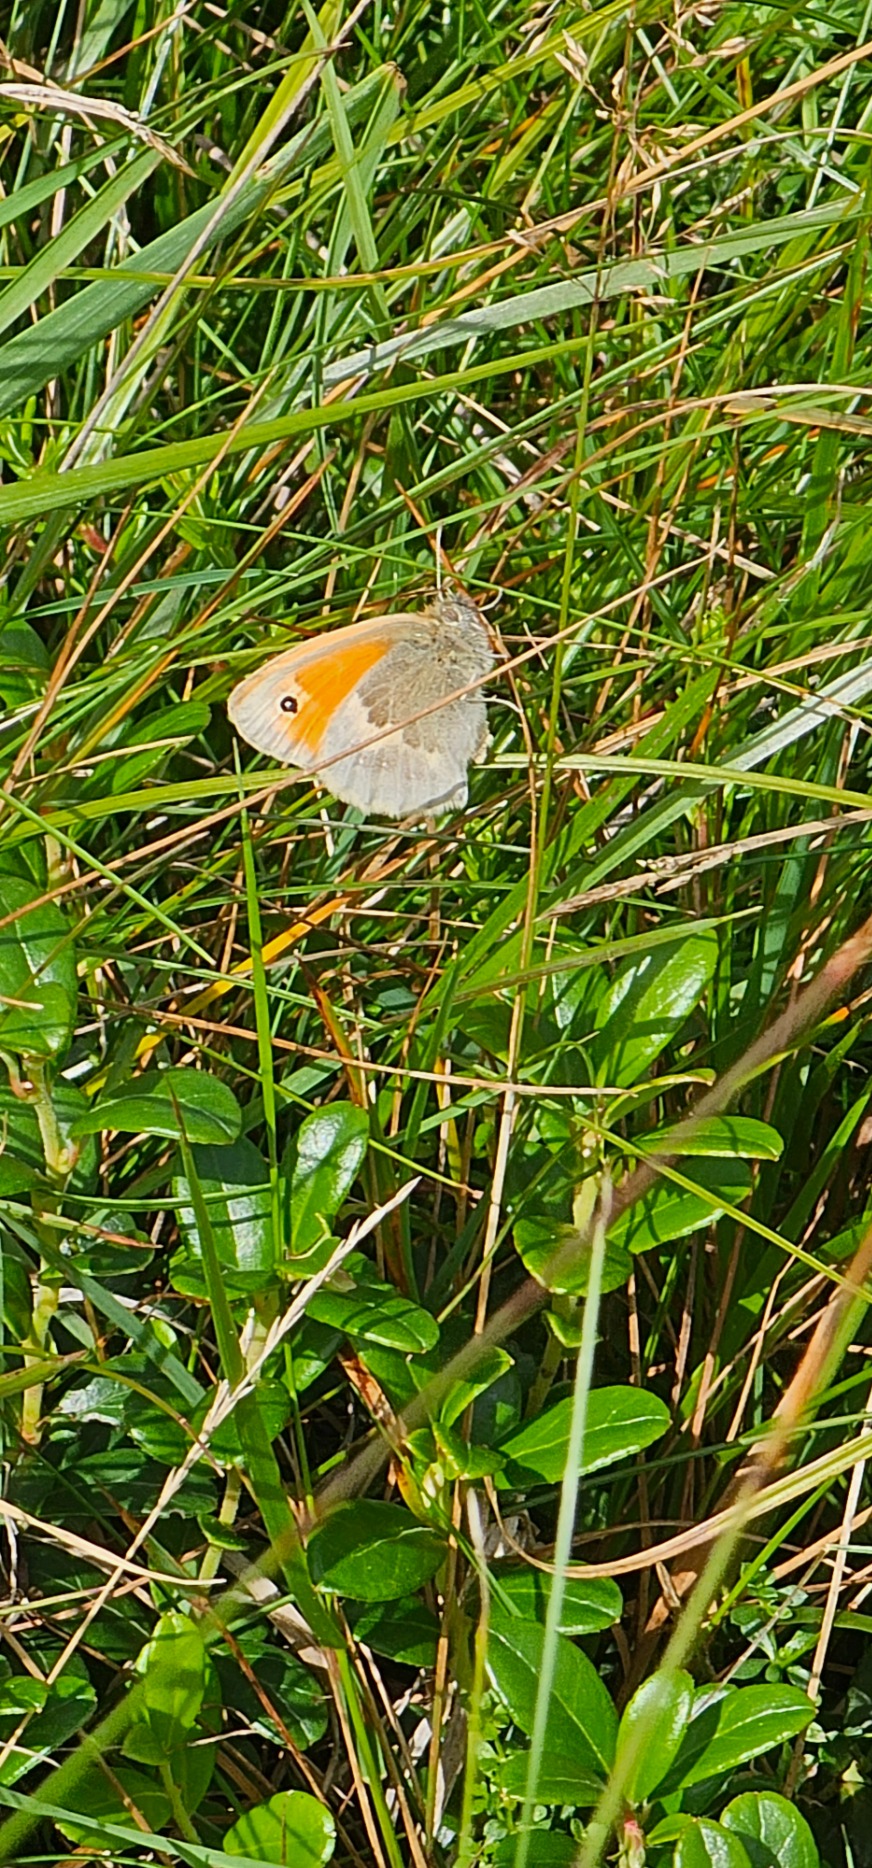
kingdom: Animalia
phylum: Arthropoda
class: Insecta
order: Lepidoptera
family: Nymphalidae
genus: Coenonympha
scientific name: Coenonympha pamphilus
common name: Okkergul randøje
